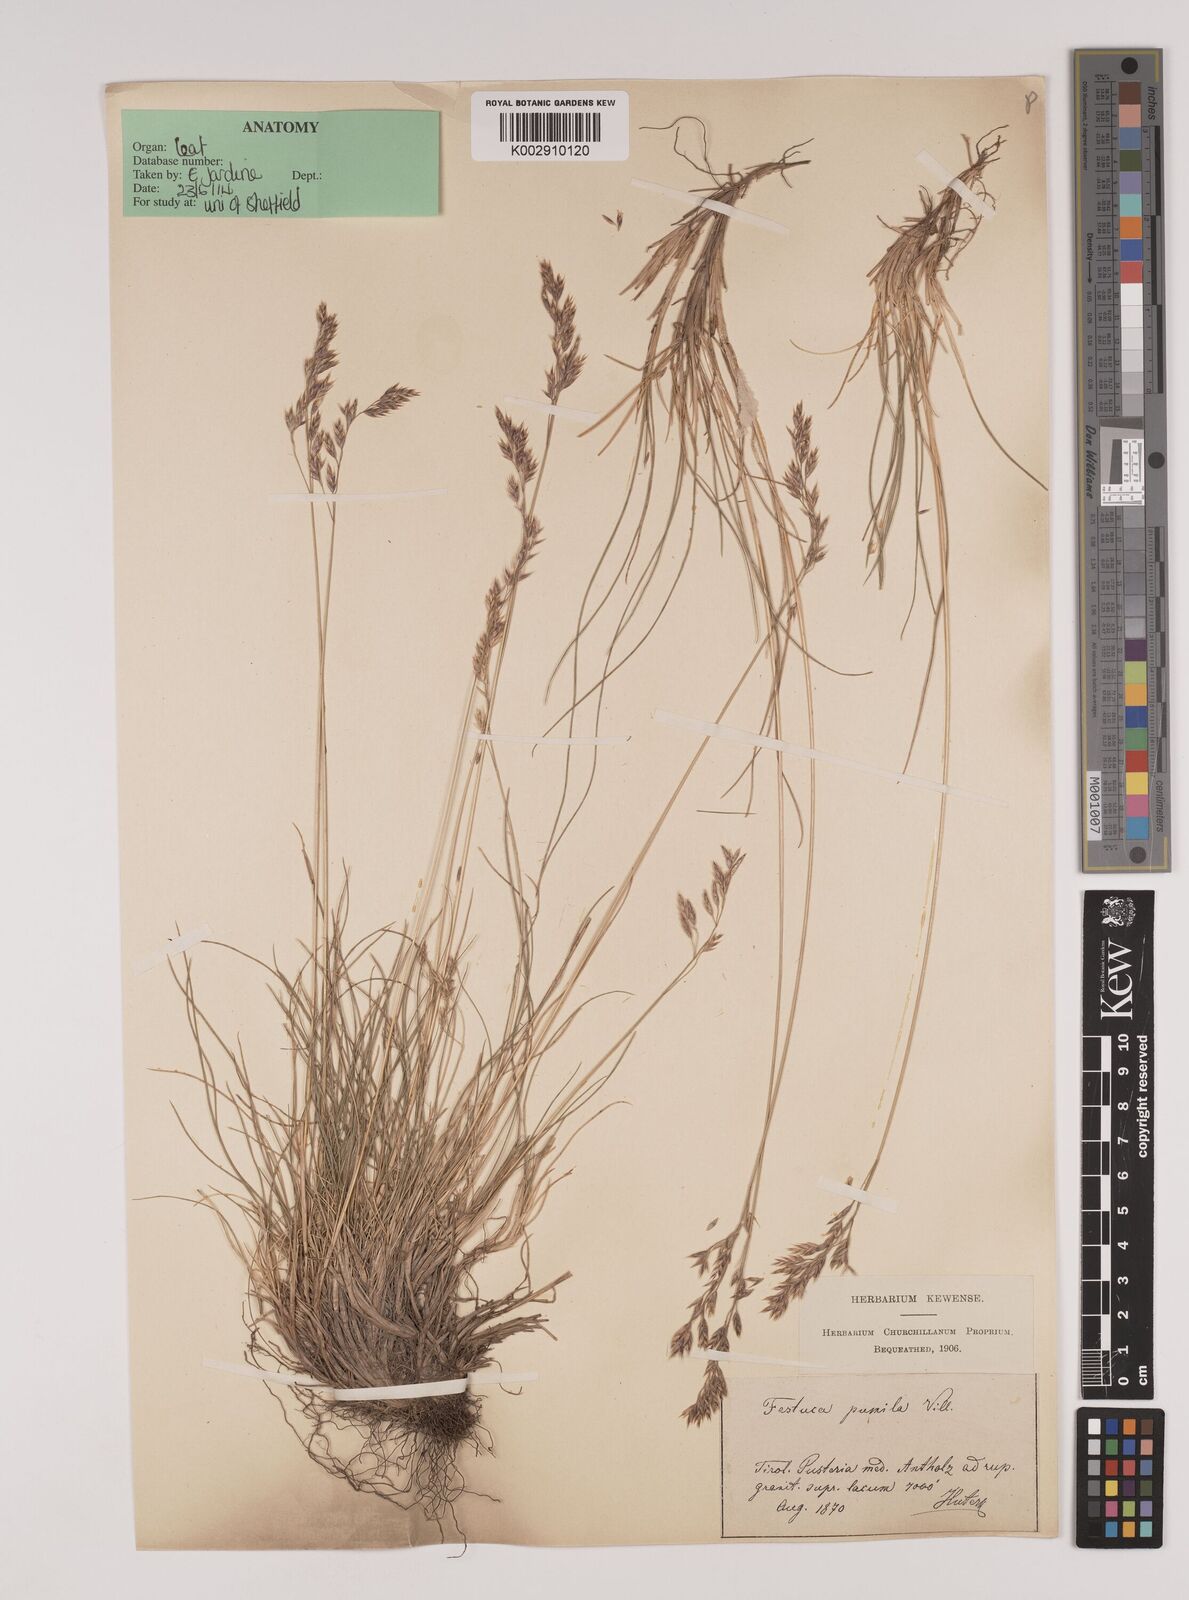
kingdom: Plantae
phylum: Tracheophyta
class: Liliopsida
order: Poales
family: Poaceae
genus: Festuca
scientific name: Festuca
